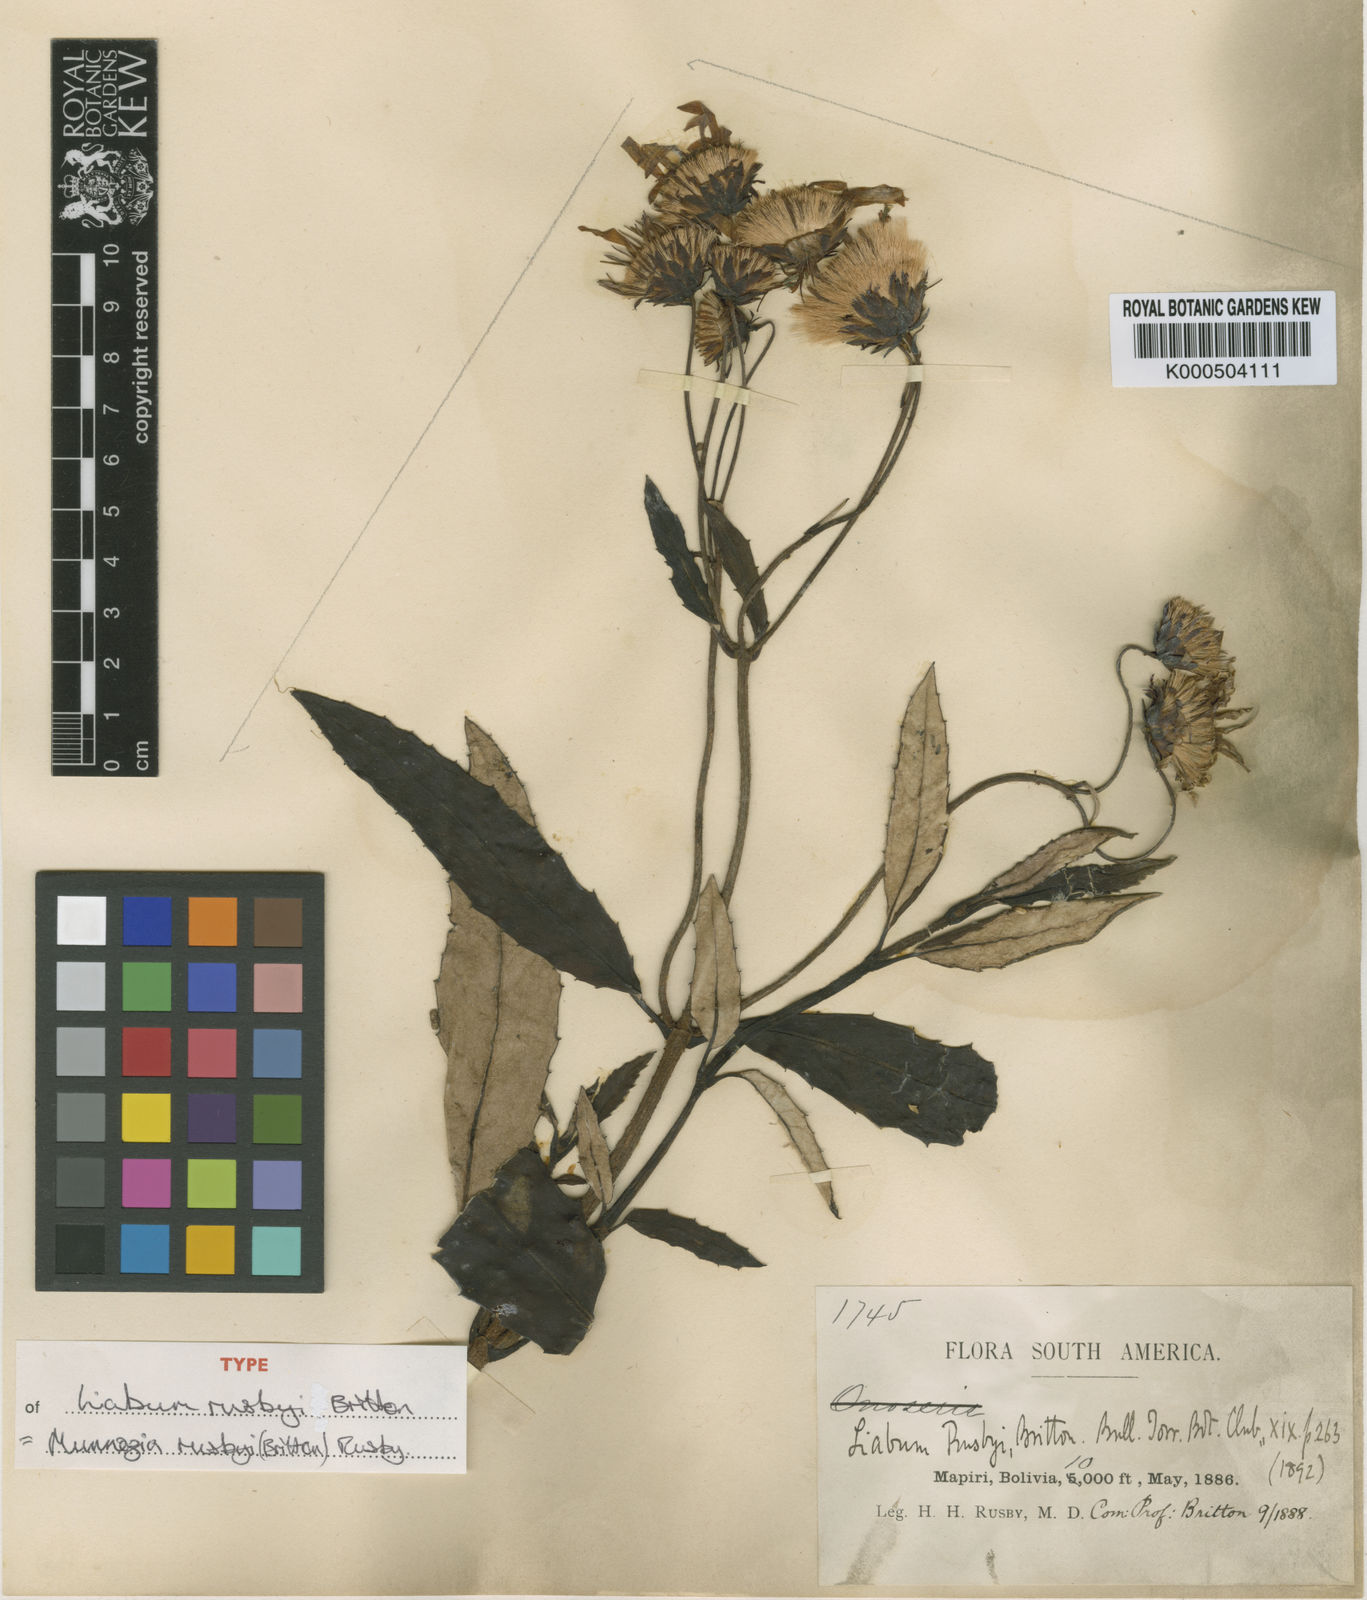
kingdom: Plantae
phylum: Tracheophyta
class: Magnoliopsida
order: Asterales
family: Asteraceae
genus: Munnozia
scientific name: Munnozia rusbyi
